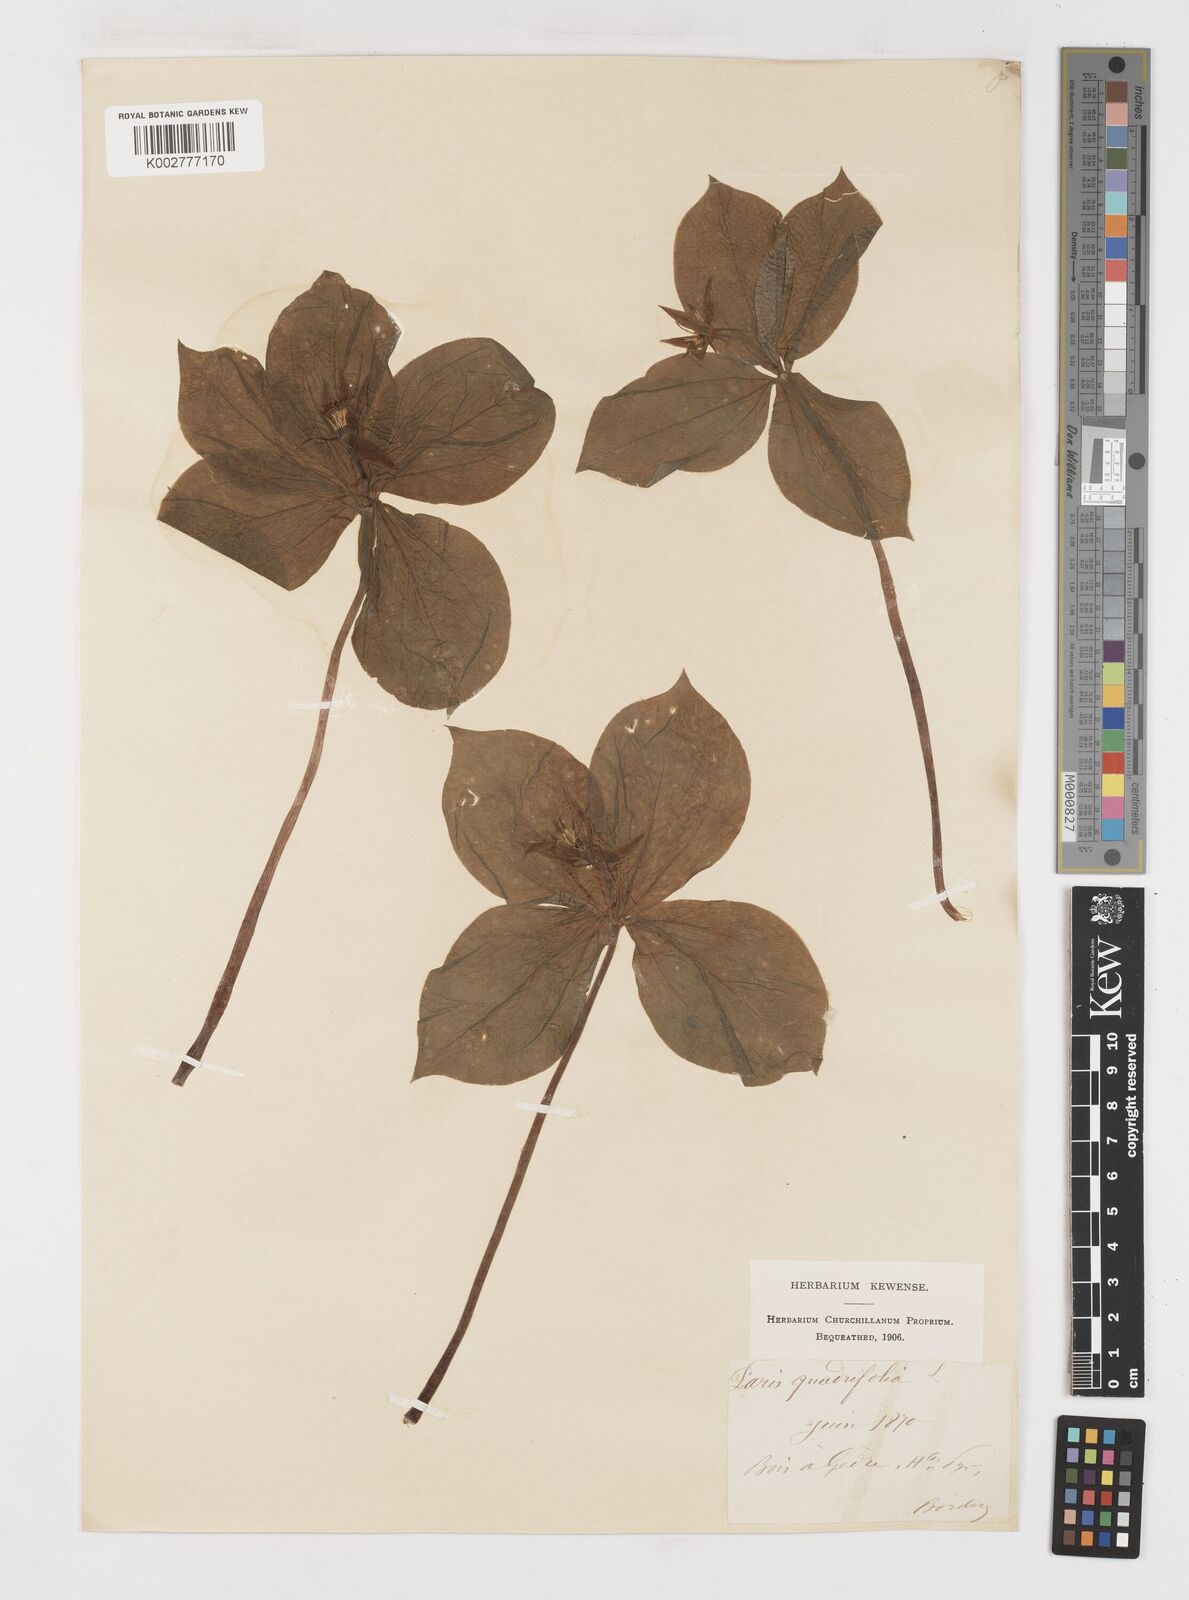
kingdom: Plantae
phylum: Tracheophyta
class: Liliopsida
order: Liliales
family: Melanthiaceae
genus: Paris
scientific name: Paris quadrifolia
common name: Herb-paris
